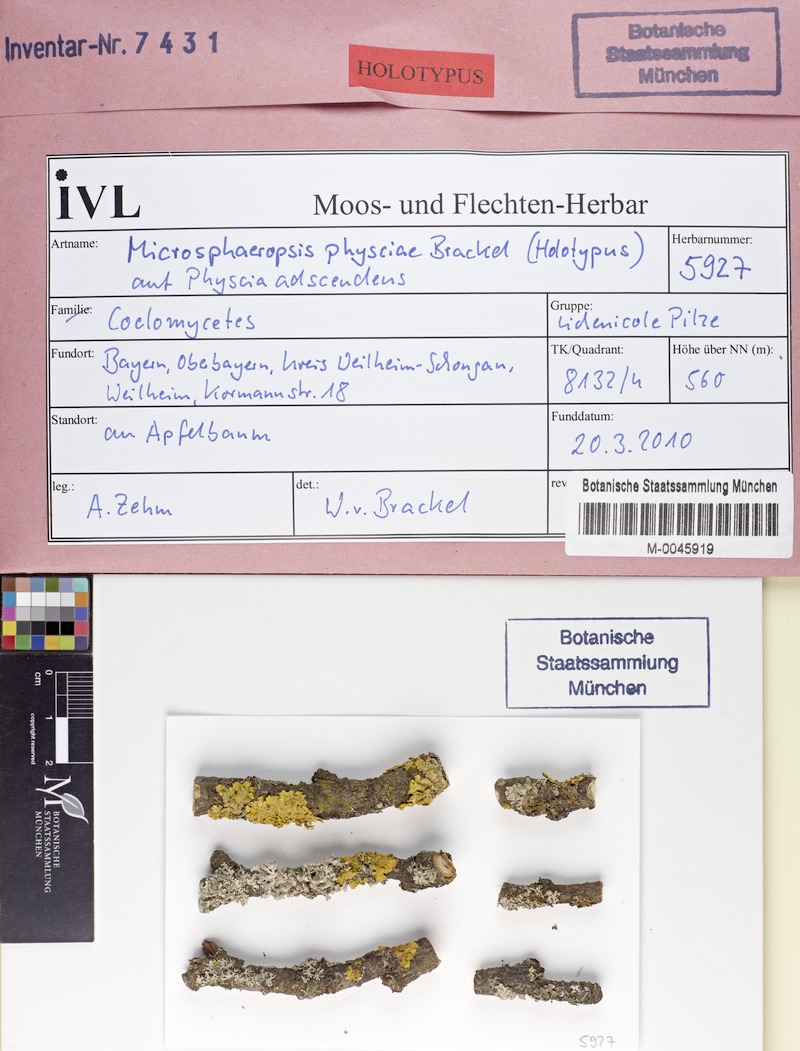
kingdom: Fungi
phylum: Ascomycota
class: Lecanoromycetes
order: Caliciales
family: Physciaceae
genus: Physcia
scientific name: Physcia adscendens
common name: Hooded rosette lichen
